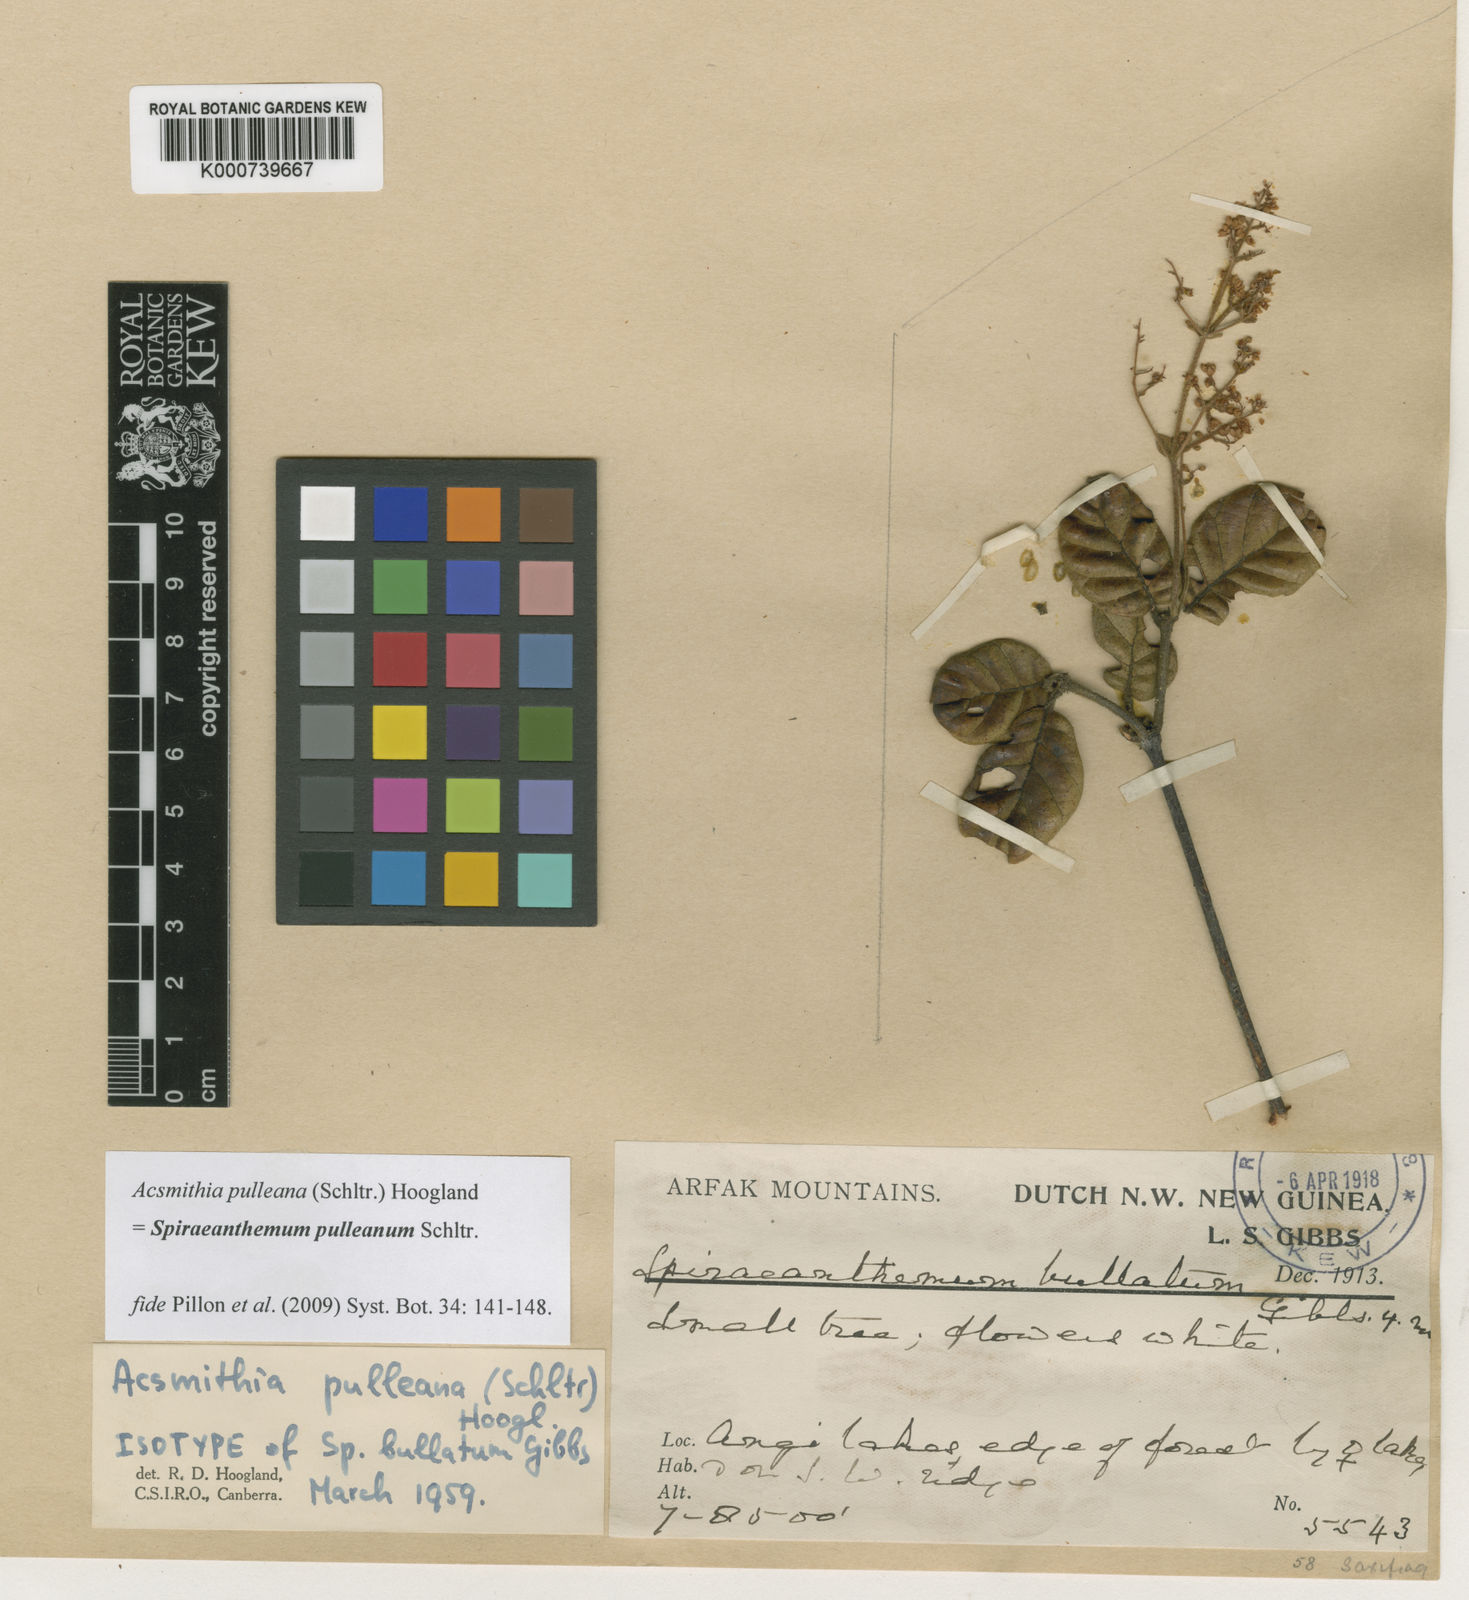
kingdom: Plantae
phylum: Tracheophyta
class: Magnoliopsida
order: Oxalidales
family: Cunoniaceae
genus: Spiraeanthemum
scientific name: Spiraeanthemum
